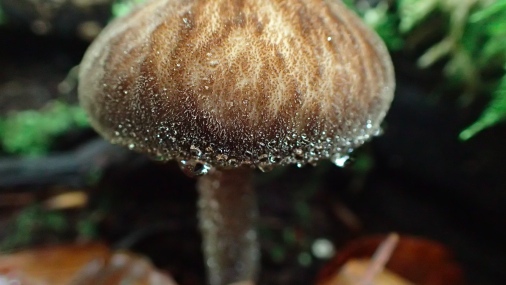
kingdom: Fungi
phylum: Basidiomycota
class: Agaricomycetes
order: Agaricales
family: Pluteaceae
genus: Pluteus
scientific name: Pluteus umbrosus
